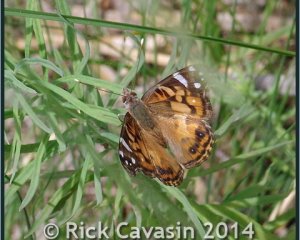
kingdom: Animalia
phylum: Arthropoda
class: Insecta
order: Lepidoptera
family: Nymphalidae
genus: Vanessa
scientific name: Vanessa virginiensis
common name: American Lady
